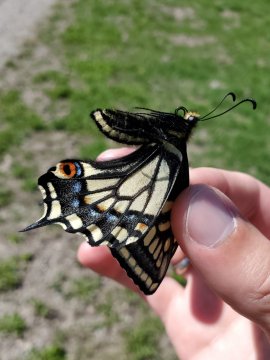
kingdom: Animalia
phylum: Arthropoda
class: Insecta
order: Lepidoptera
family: Papilionidae
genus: Papilio
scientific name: Papilio zelicaon
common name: Anise Swallowtail
